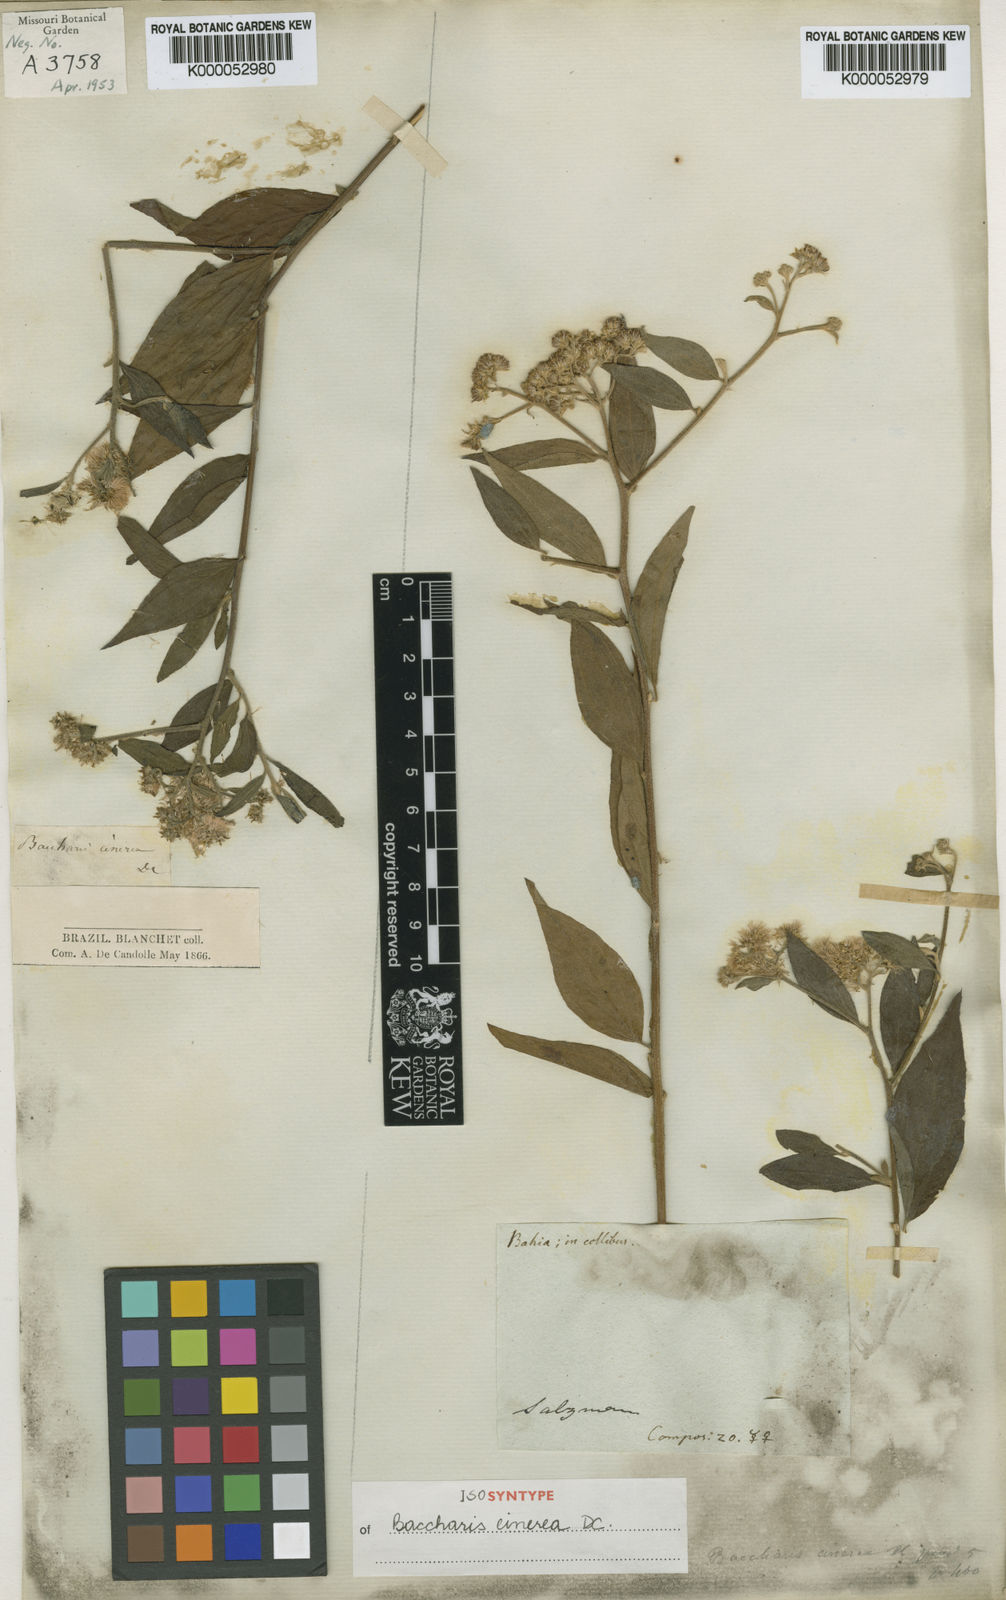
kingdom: Plantae
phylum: Tracheophyta
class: Magnoliopsida
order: Asterales
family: Asteraceae
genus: Baccharis
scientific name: Baccharis trinervis
